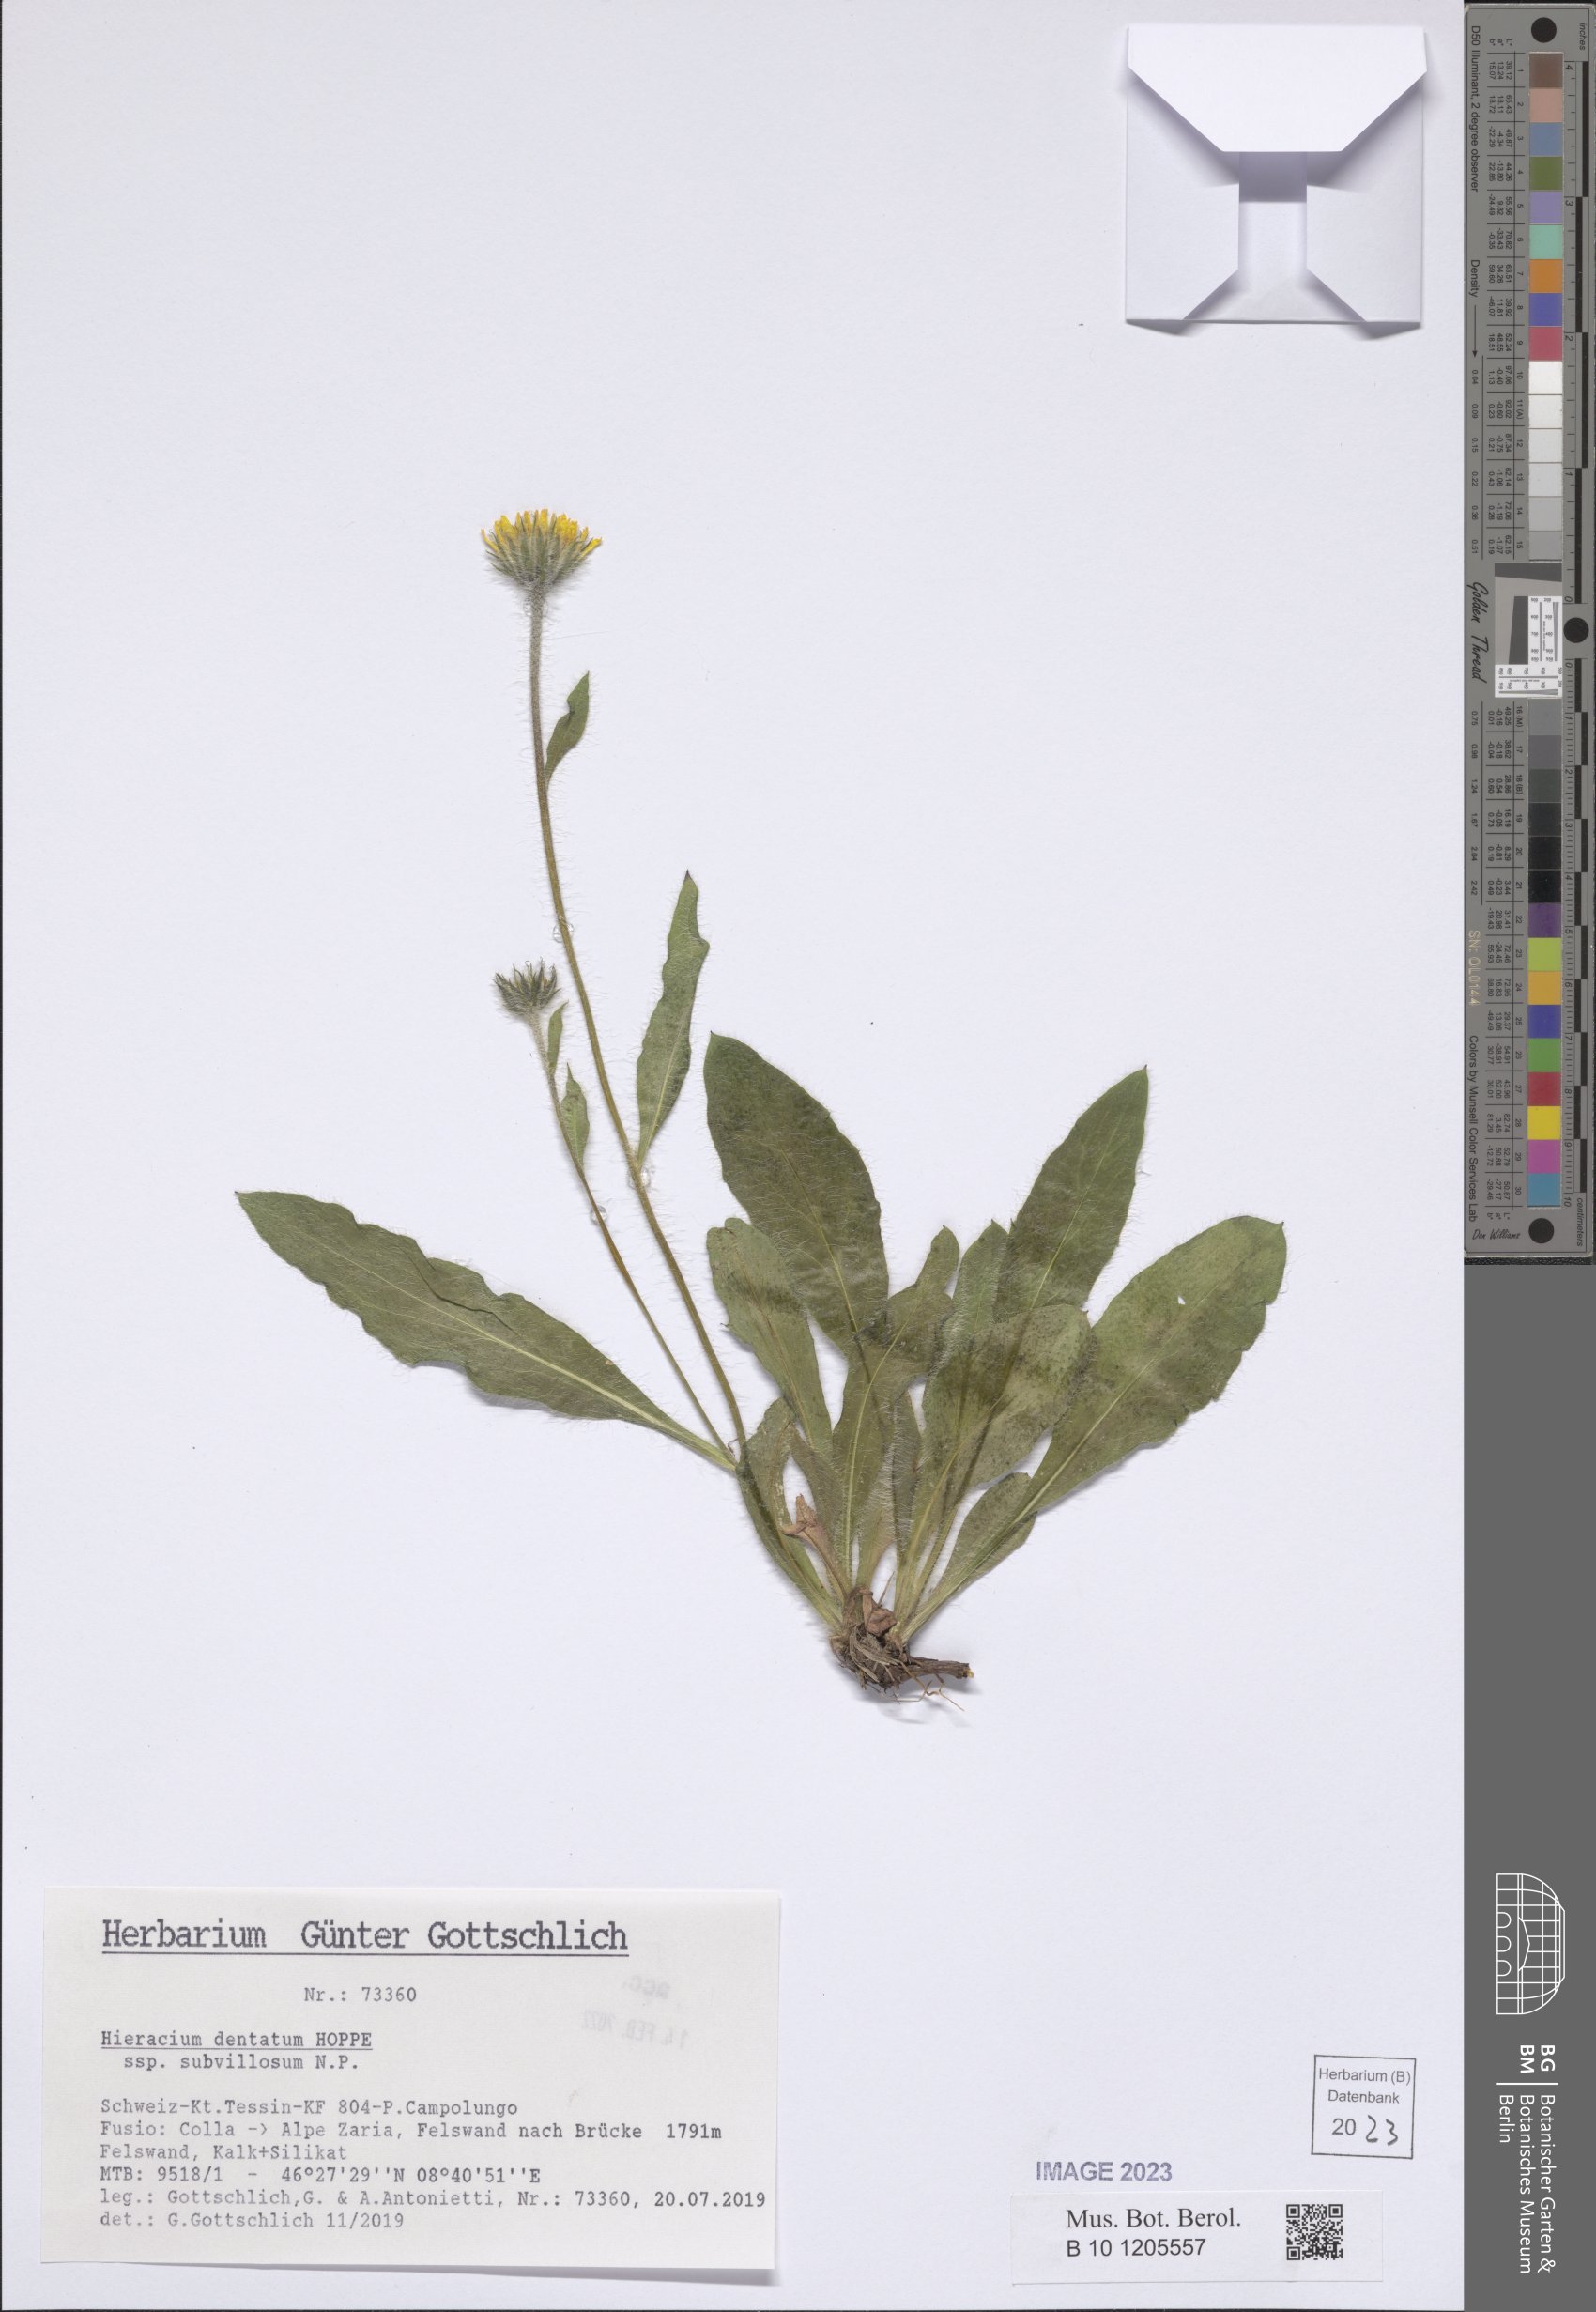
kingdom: Plantae
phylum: Tracheophyta
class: Magnoliopsida
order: Asterales
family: Asteraceae
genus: Hieracium
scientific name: Hieracium dentatum
